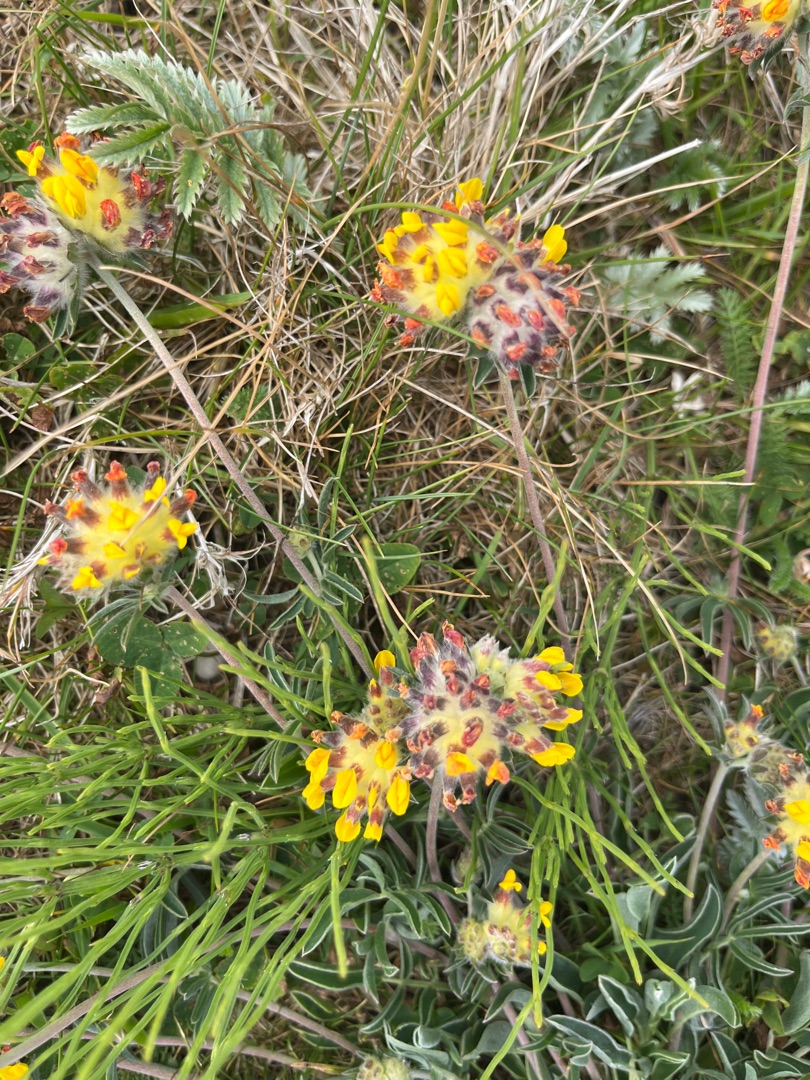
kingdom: Plantae
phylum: Tracheophyta
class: Magnoliopsida
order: Fabales
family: Fabaceae
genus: Anthyllis
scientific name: Anthyllis vulneraria
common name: Rundbælg
